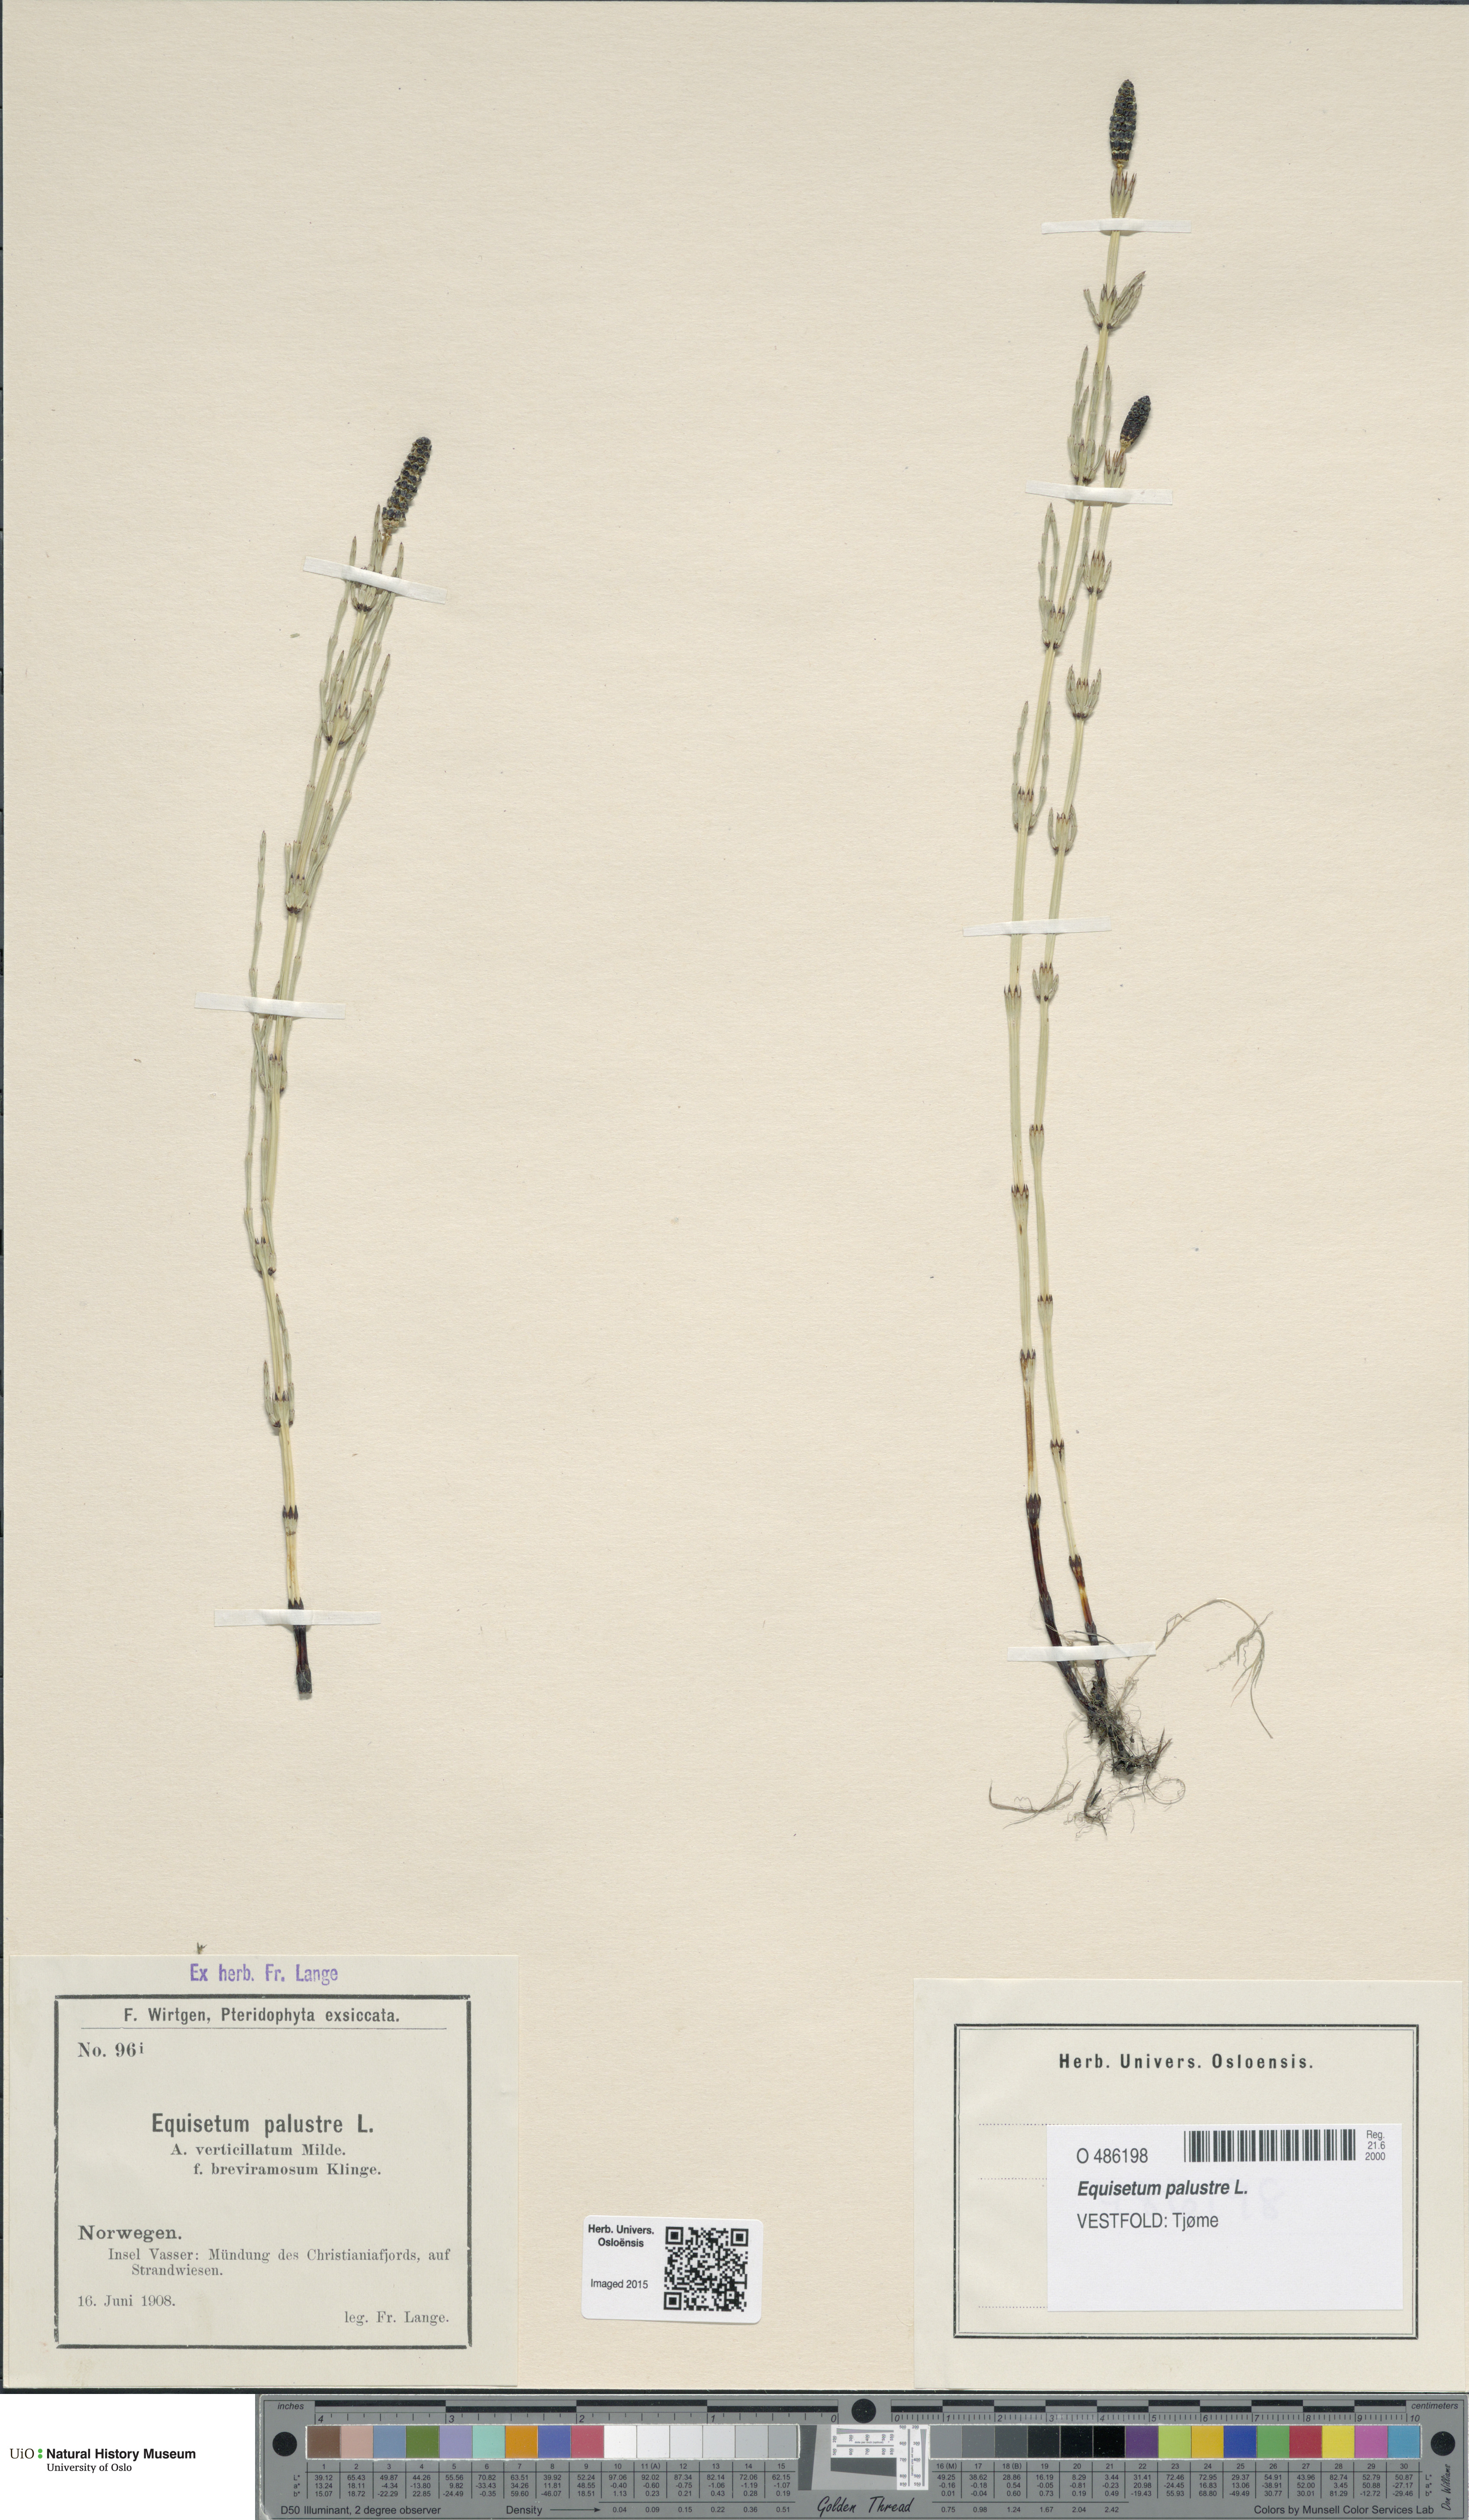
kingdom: Plantae
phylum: Tracheophyta
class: Polypodiopsida
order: Equisetales
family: Equisetaceae
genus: Equisetum
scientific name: Equisetum palustre
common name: Marsh horsetail
